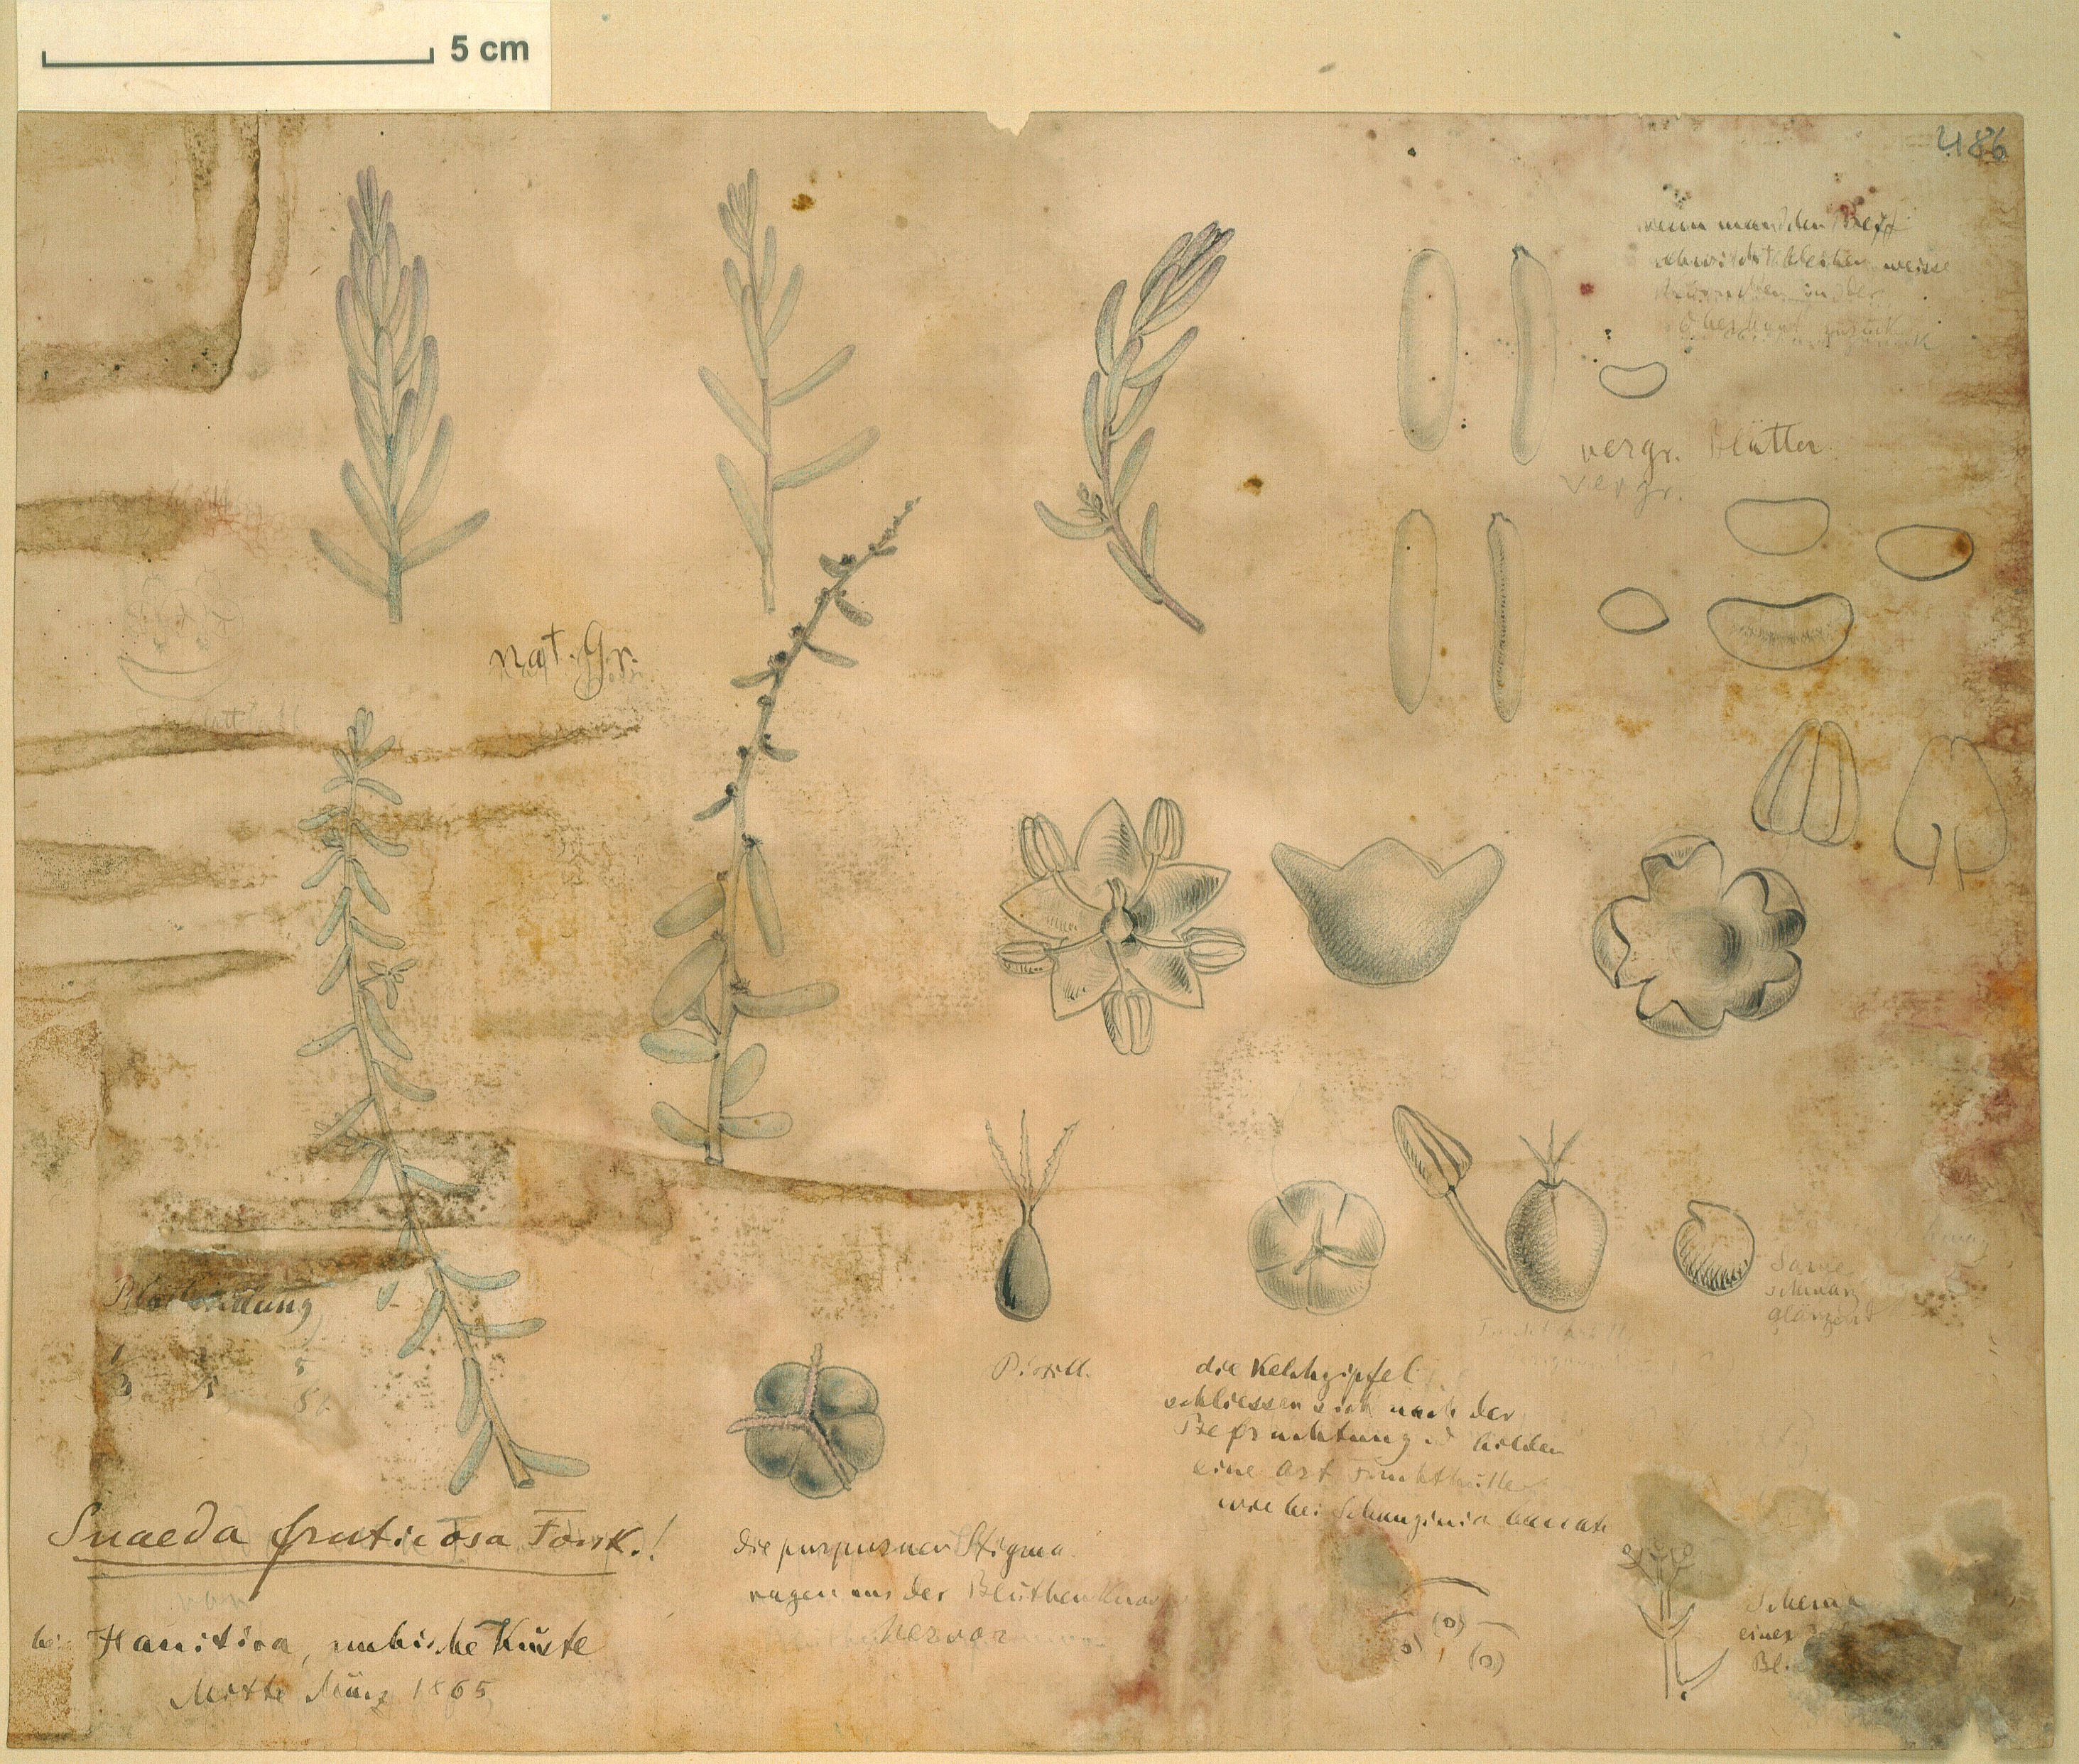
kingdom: Plantae
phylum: Tracheophyta
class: Magnoliopsida
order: Caryophyllales
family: Amaranthaceae
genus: Suaeda
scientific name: Suaeda fruticosa
